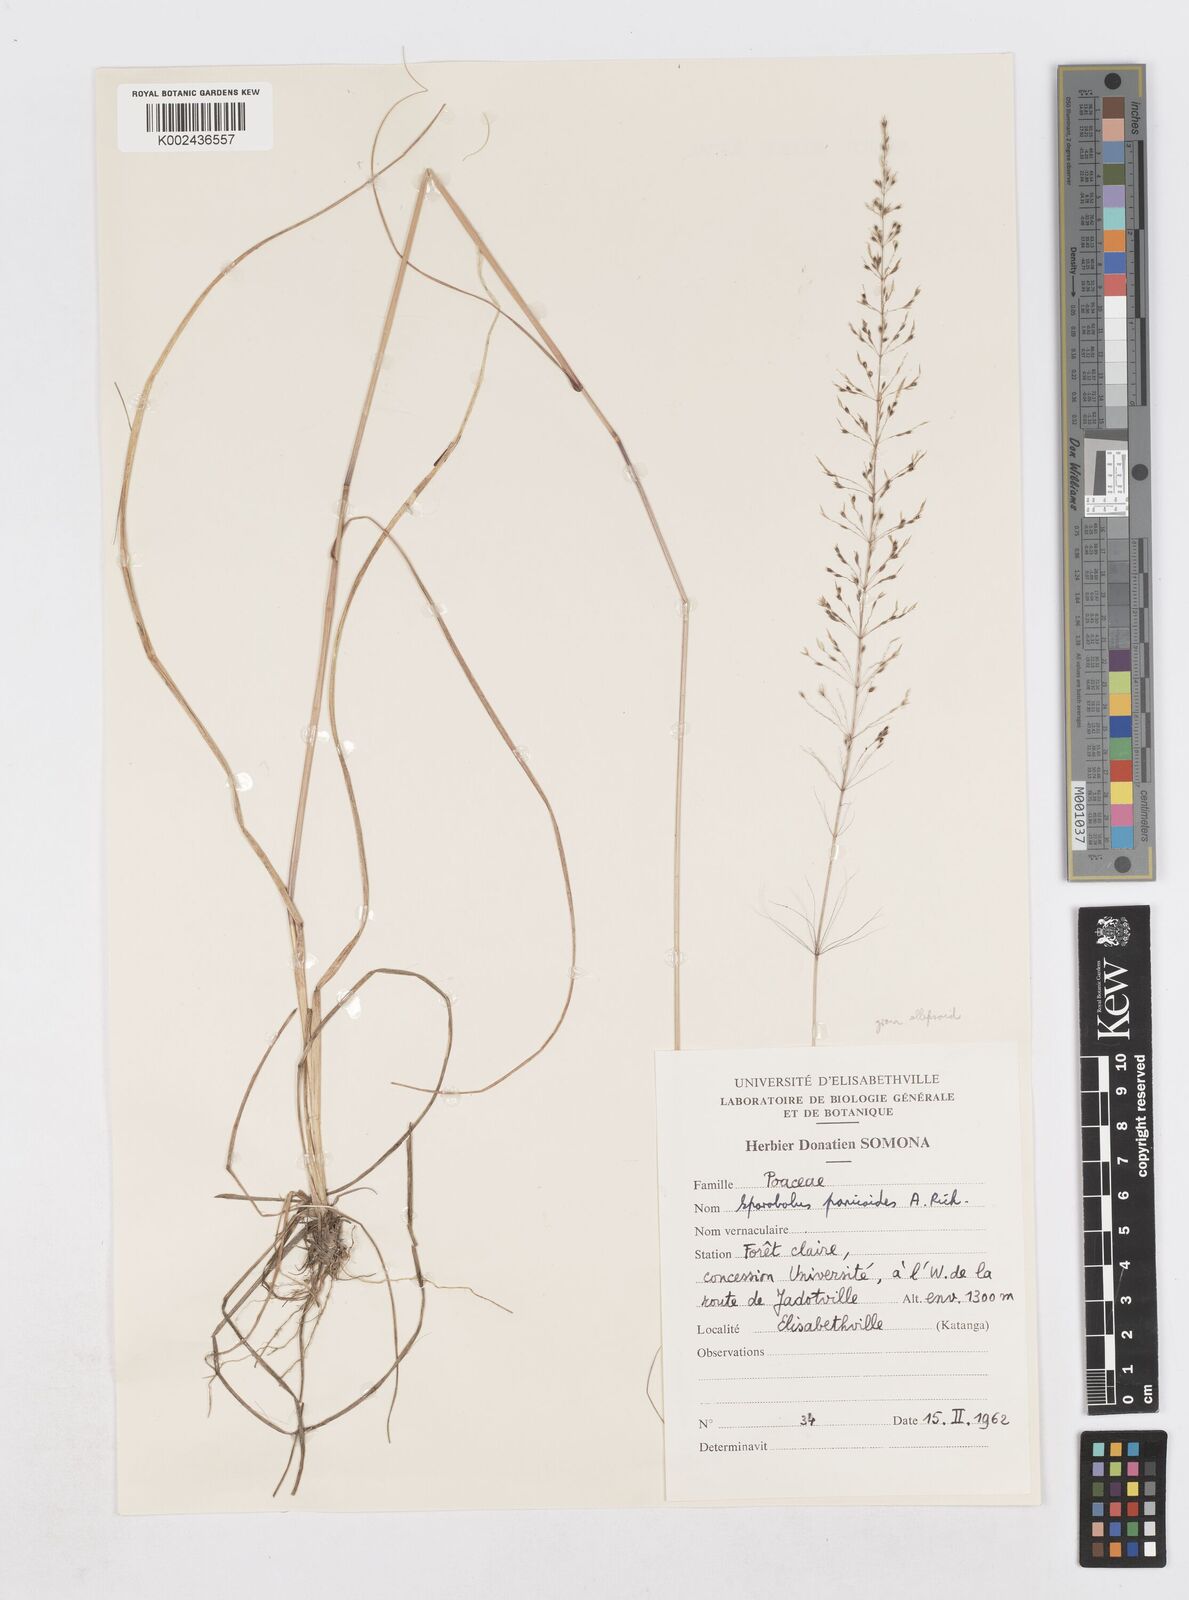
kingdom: Plantae
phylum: Tracheophyta
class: Liliopsida
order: Poales
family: Poaceae
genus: Sporobolus
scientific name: Sporobolus panicoides
